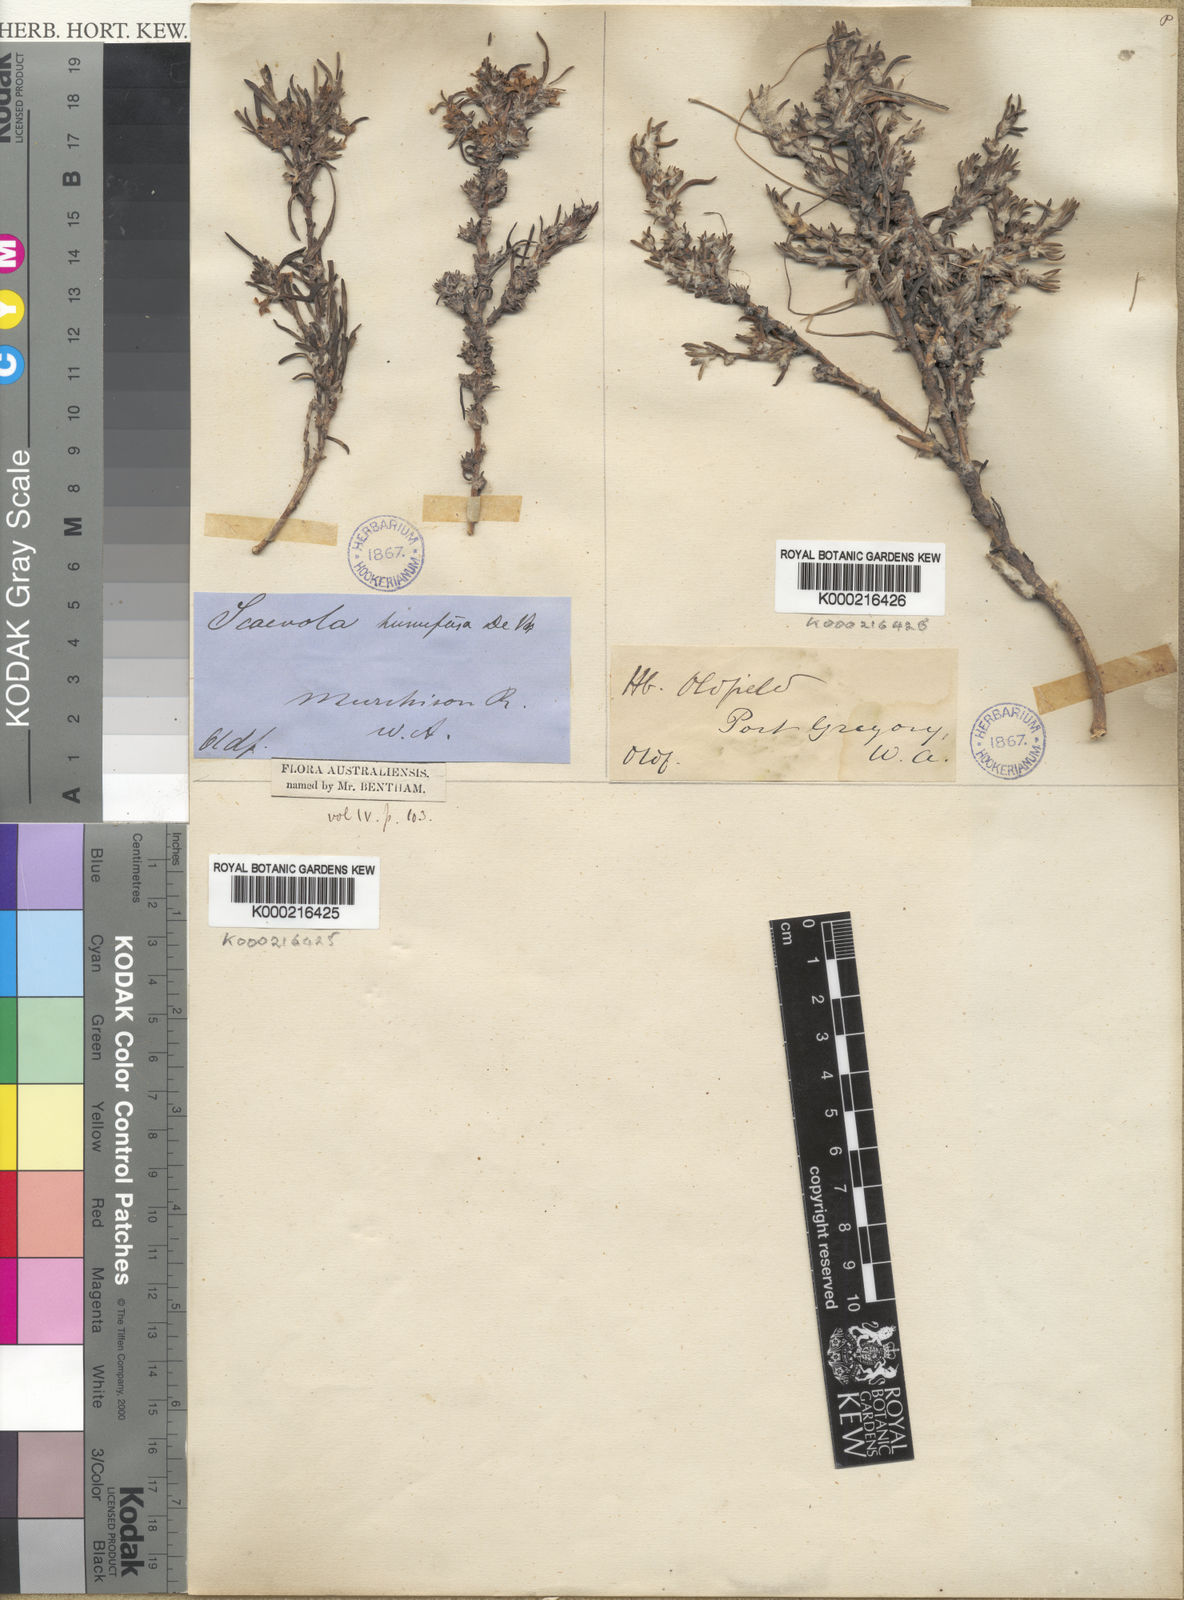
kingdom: Plantae
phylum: Tracheophyta
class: Magnoliopsida
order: Asterales
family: Goodeniaceae
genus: Scaevola
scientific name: Scaevola humifusa
